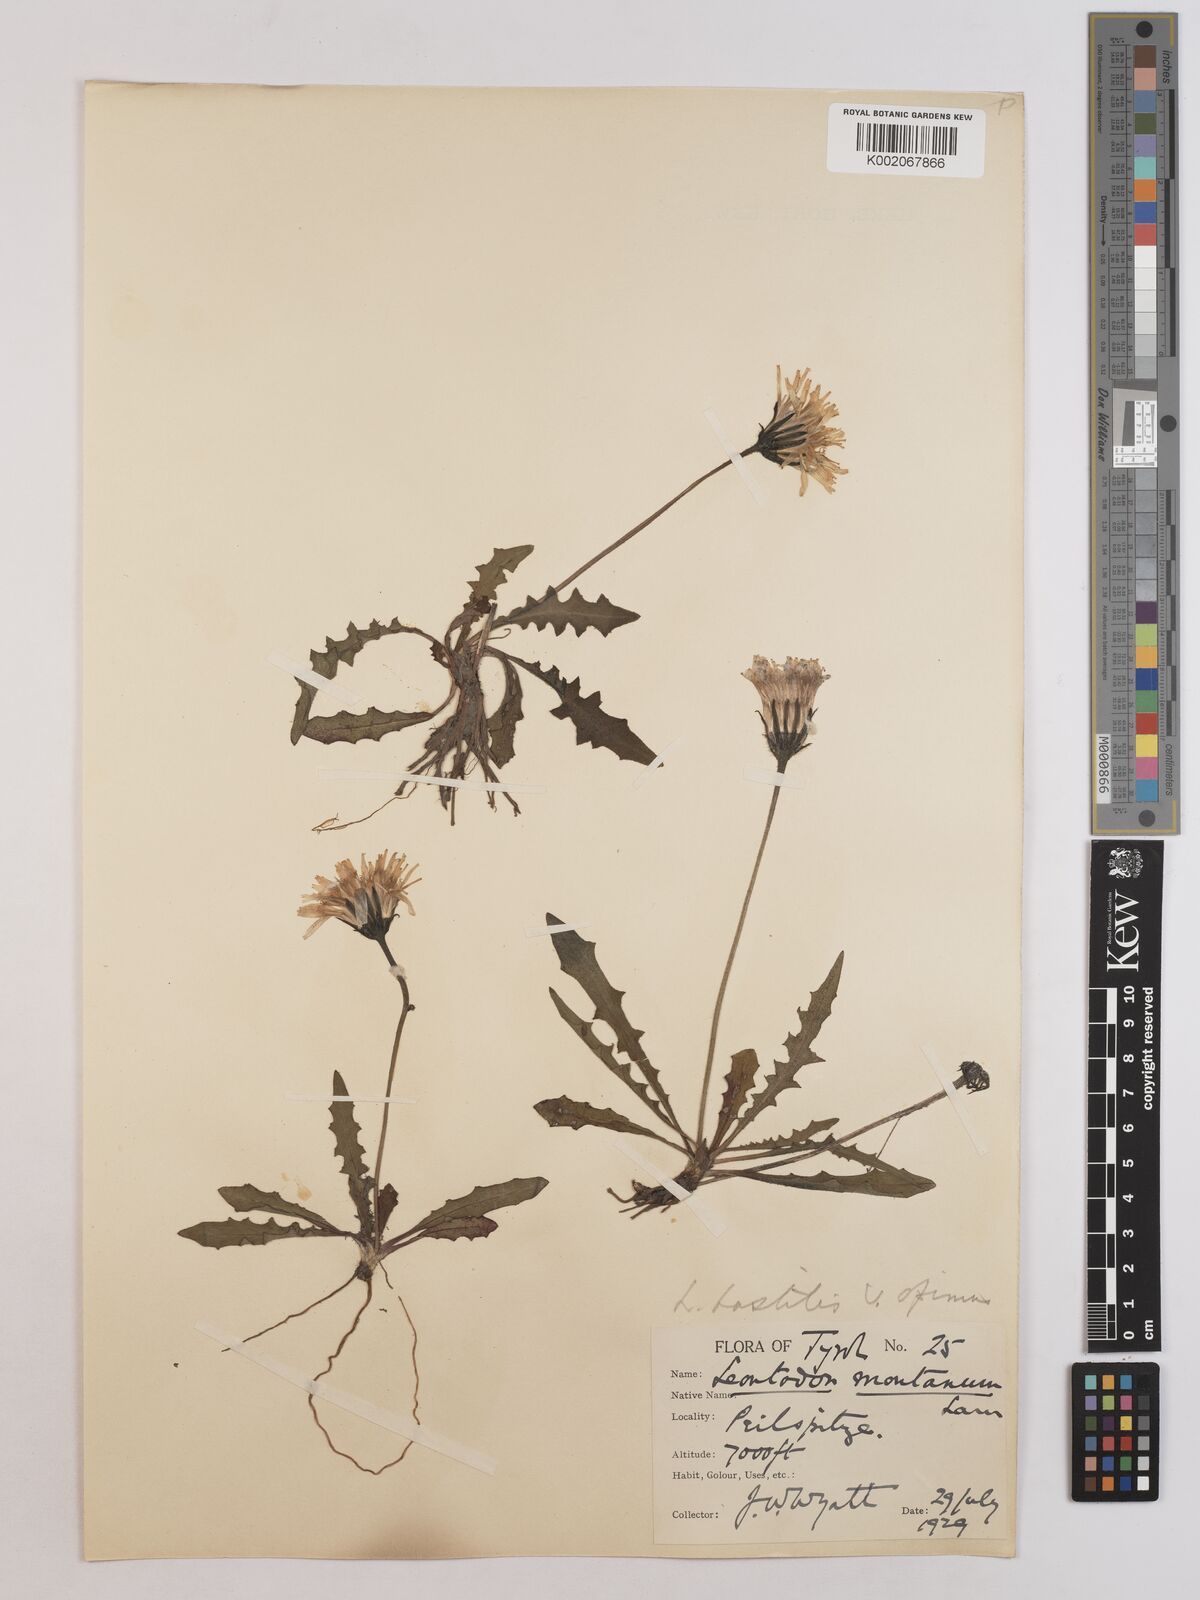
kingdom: Plantae
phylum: Tracheophyta
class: Magnoliopsida
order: Asterales
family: Asteraceae
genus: Leontodon
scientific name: Leontodon hispidus
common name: Rough hawkbit
